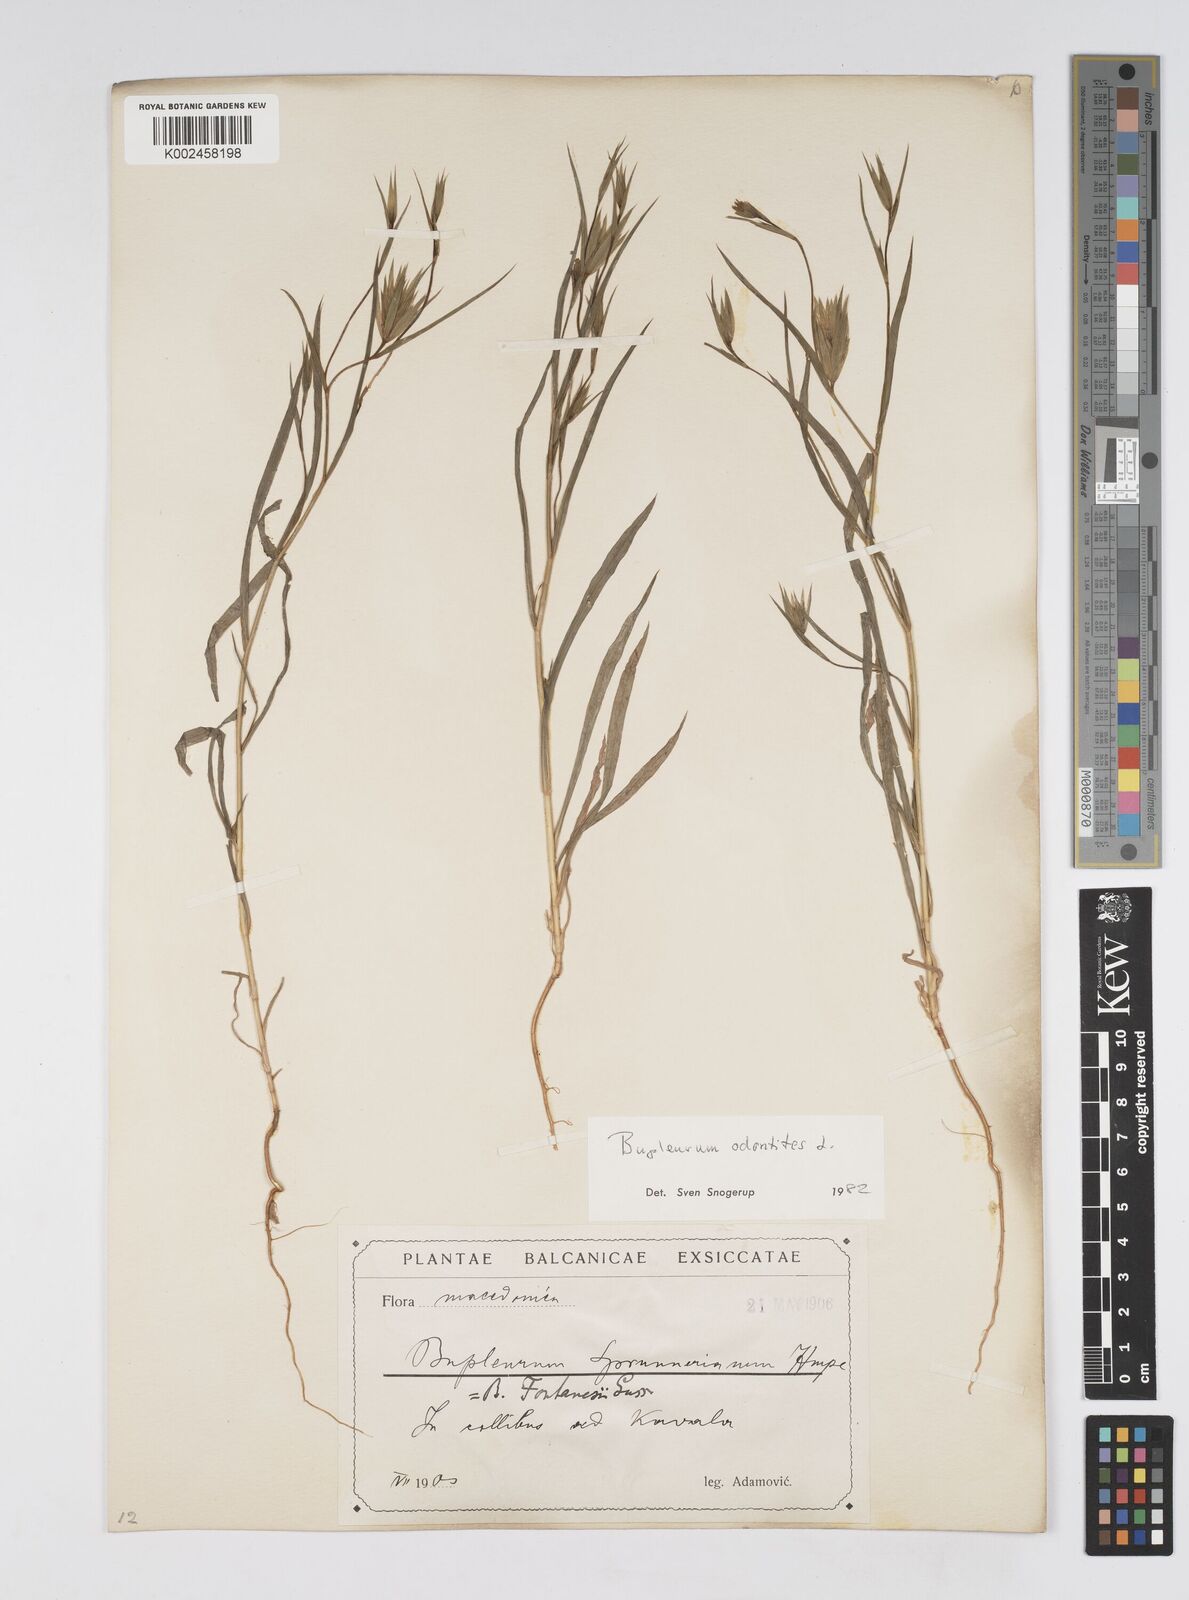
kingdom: Plantae
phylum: Tracheophyta
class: Magnoliopsida
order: Apiales
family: Apiaceae
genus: Bupleurum
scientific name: Bupleurum odontites
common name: Narrowleaf thorow wax
